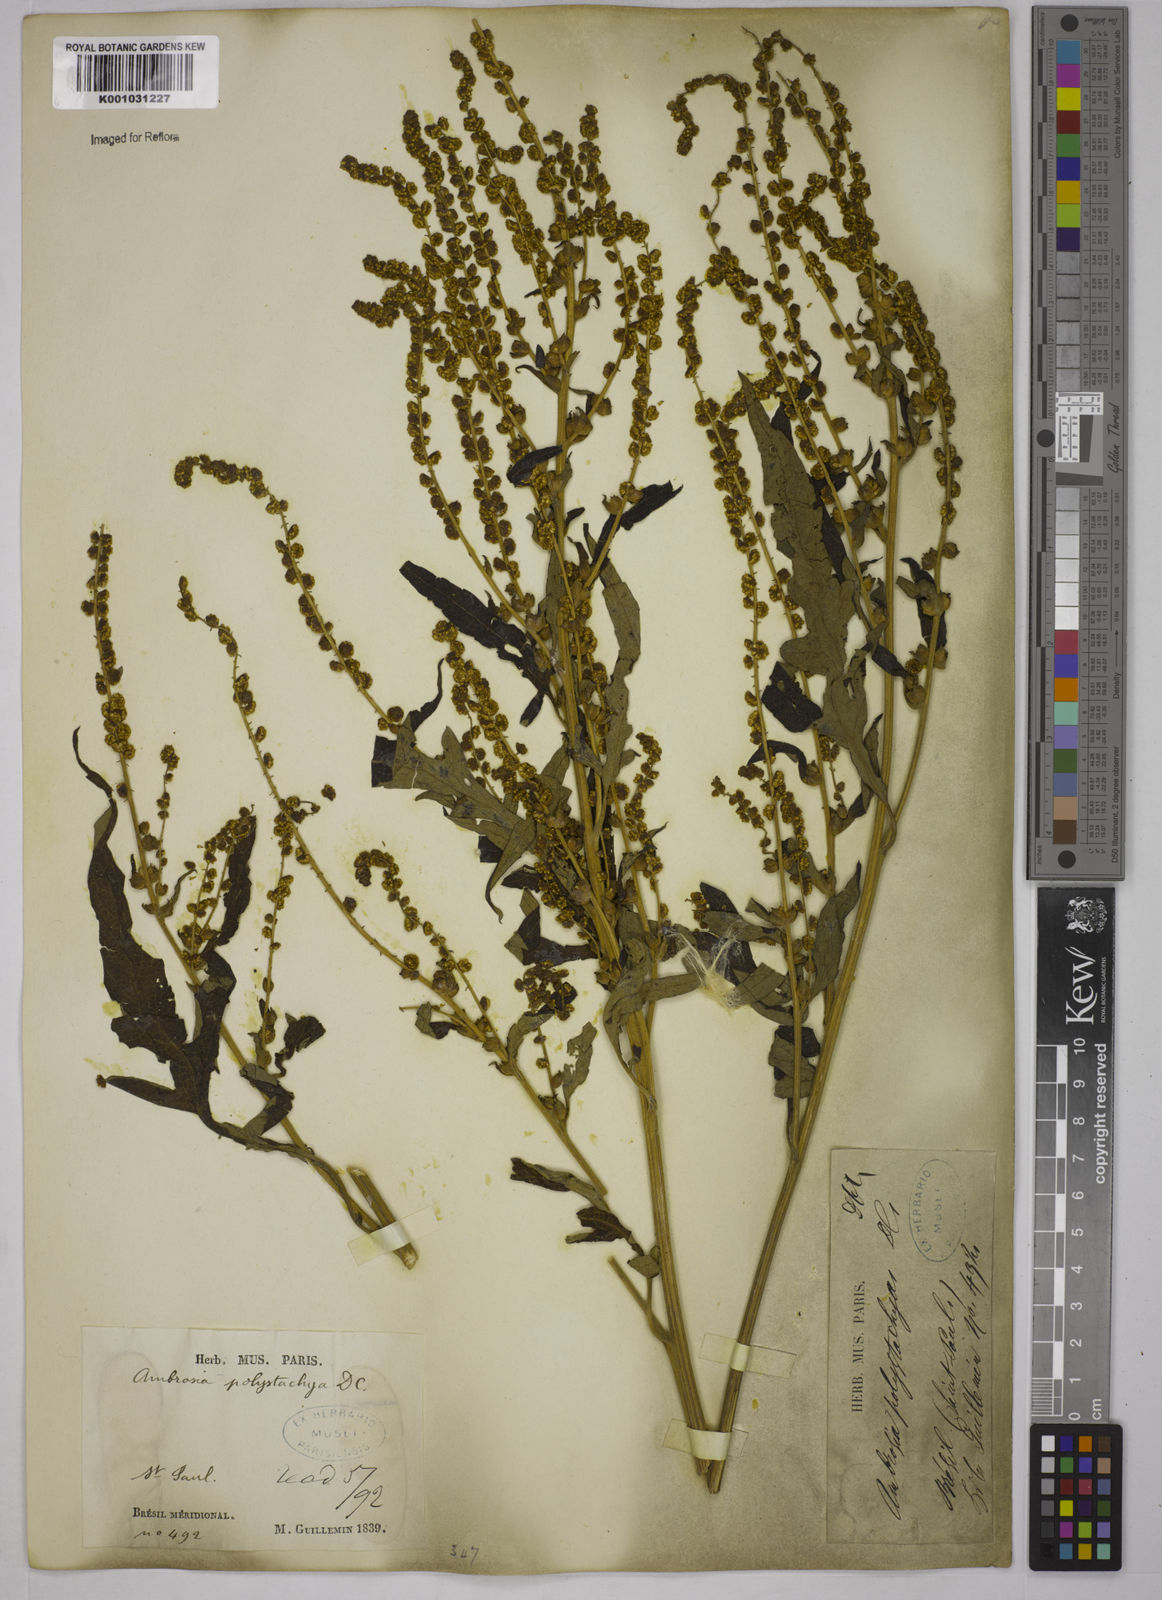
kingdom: Plantae
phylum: Tracheophyta
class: Magnoliopsida
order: Asterales
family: Asteraceae
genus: Ambrosia
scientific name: Ambrosia polystachya
